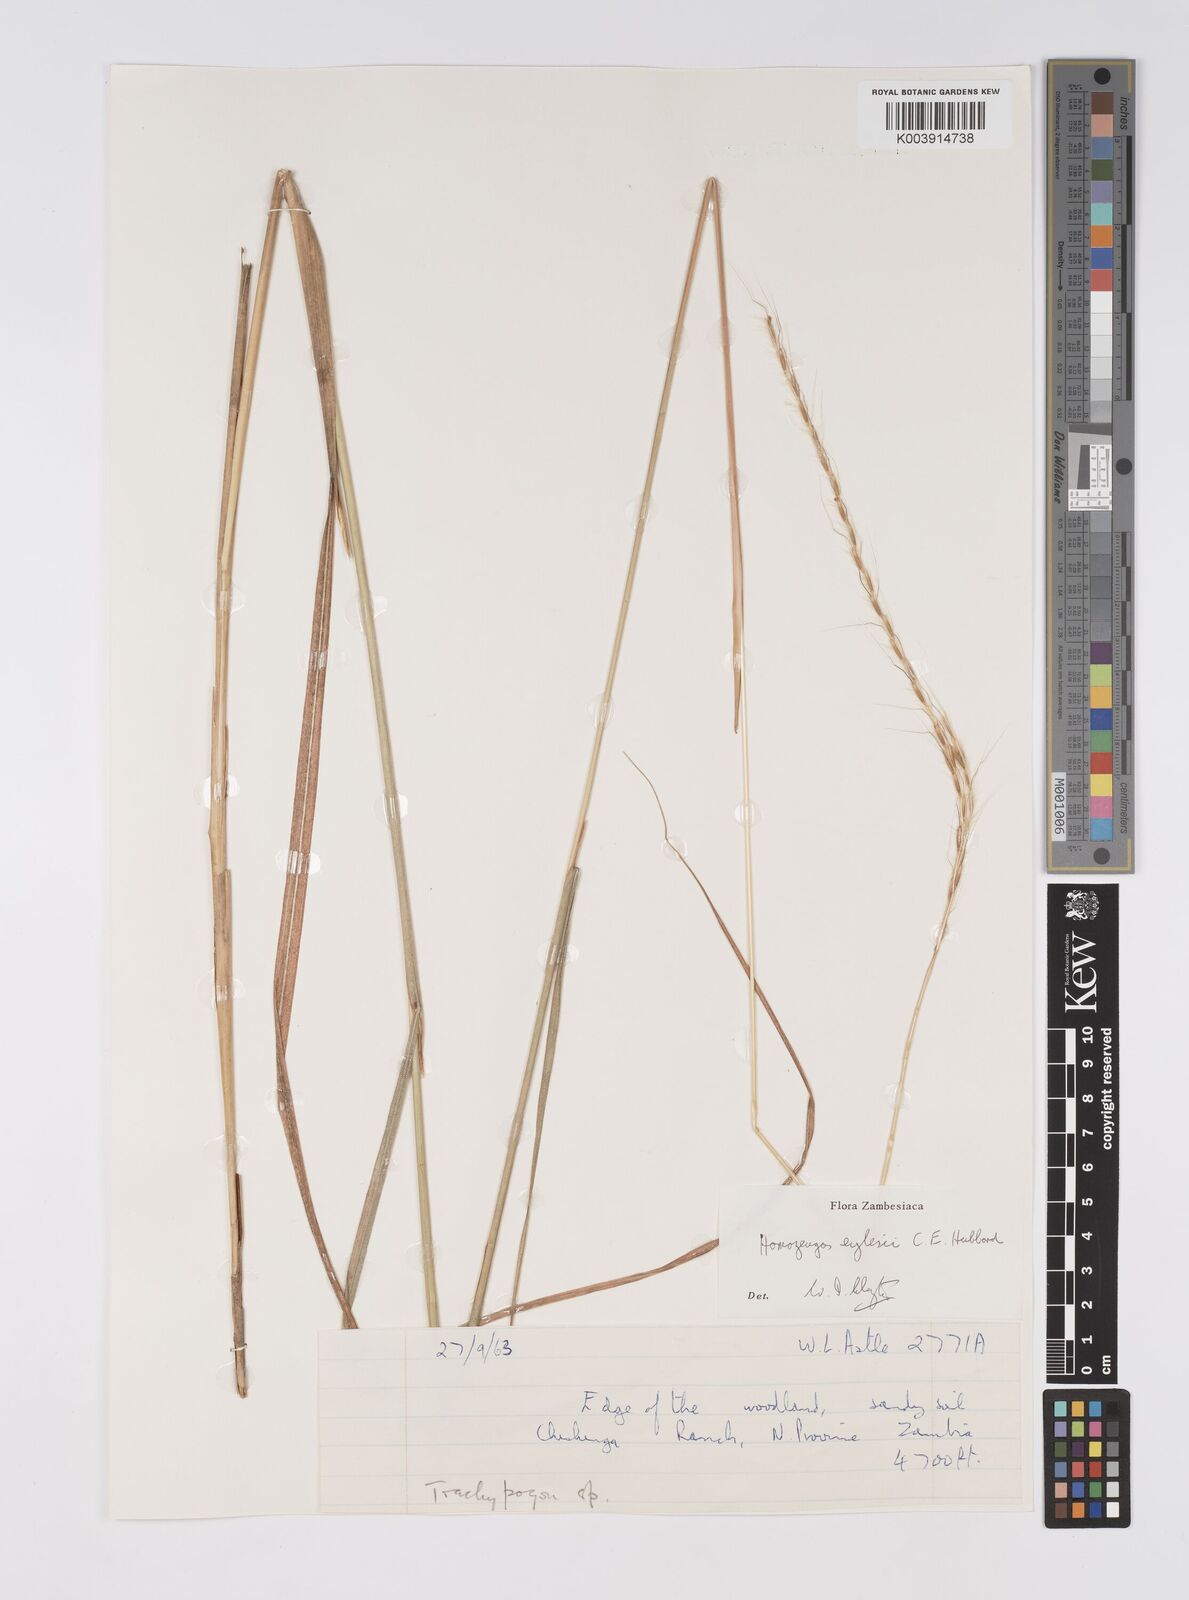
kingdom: Plantae
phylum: Tracheophyta
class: Liliopsida
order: Poales
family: Poaceae
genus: Homozeugos
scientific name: Homozeugos eylesii
